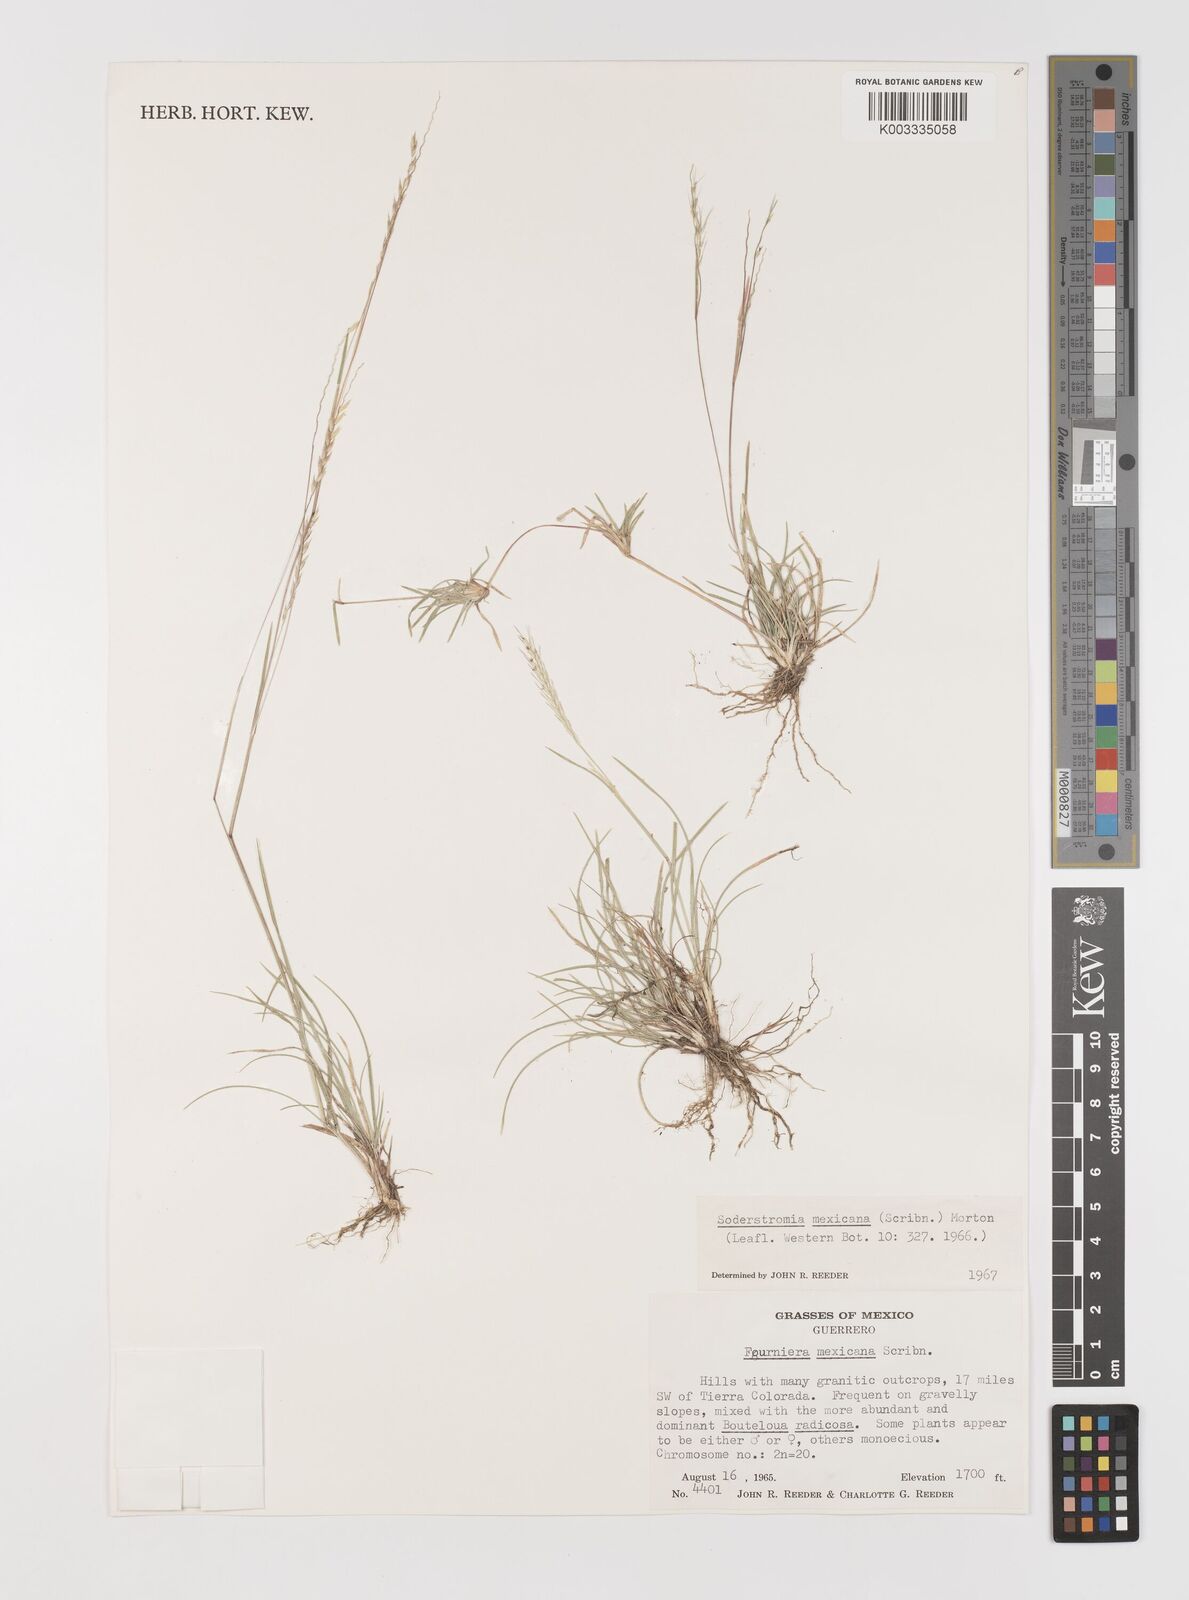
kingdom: Plantae
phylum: Tracheophyta
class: Liliopsida
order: Poales
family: Poaceae
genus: Bouteloua
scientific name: Bouteloua mexicana
